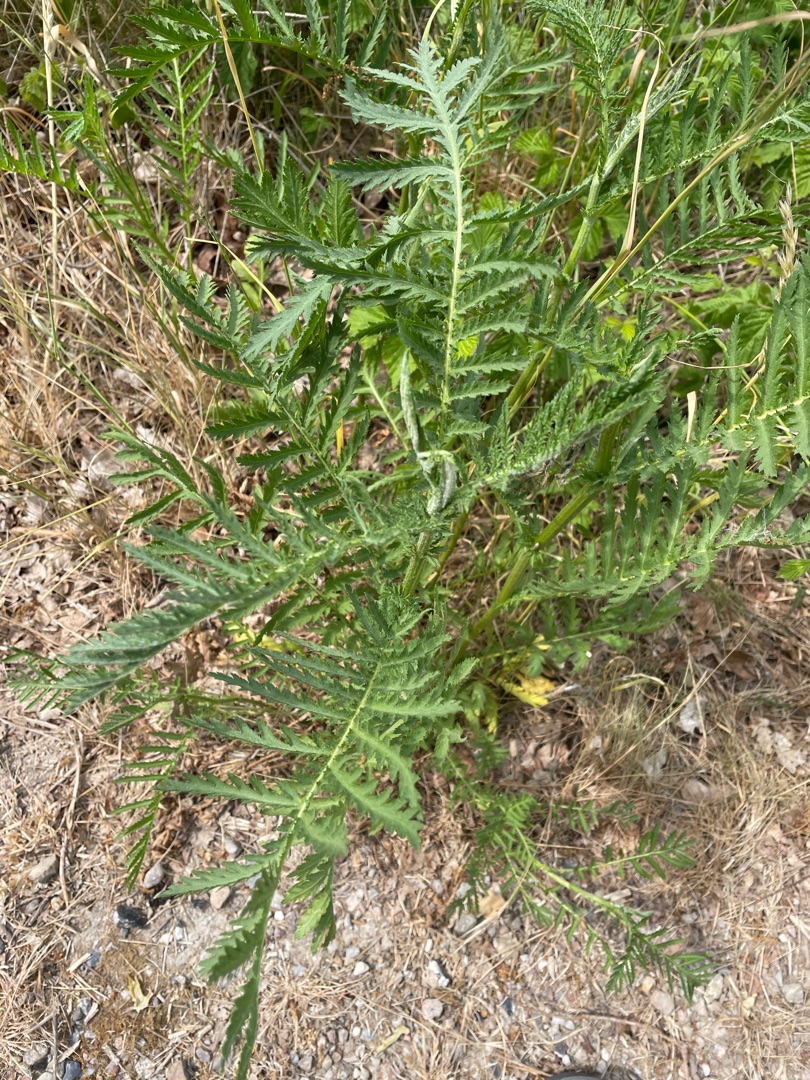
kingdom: Plantae
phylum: Tracheophyta
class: Magnoliopsida
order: Asterales
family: Asteraceae
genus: Tanacetum
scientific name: Tanacetum vulgare
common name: Rejnfan
